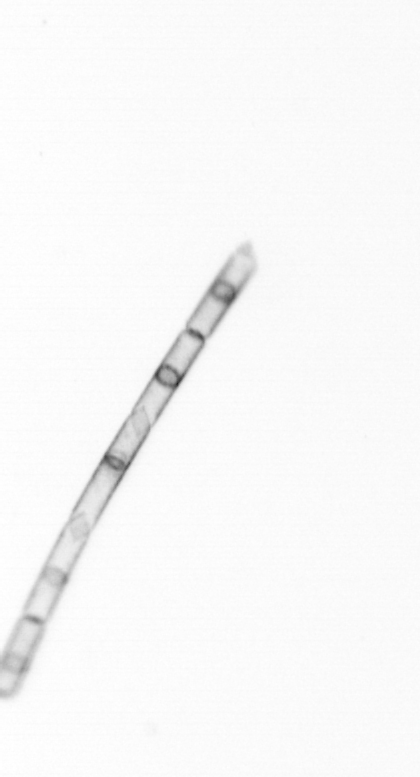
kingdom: Chromista
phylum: Ochrophyta
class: Bacillariophyceae
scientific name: Bacillariophyceae
